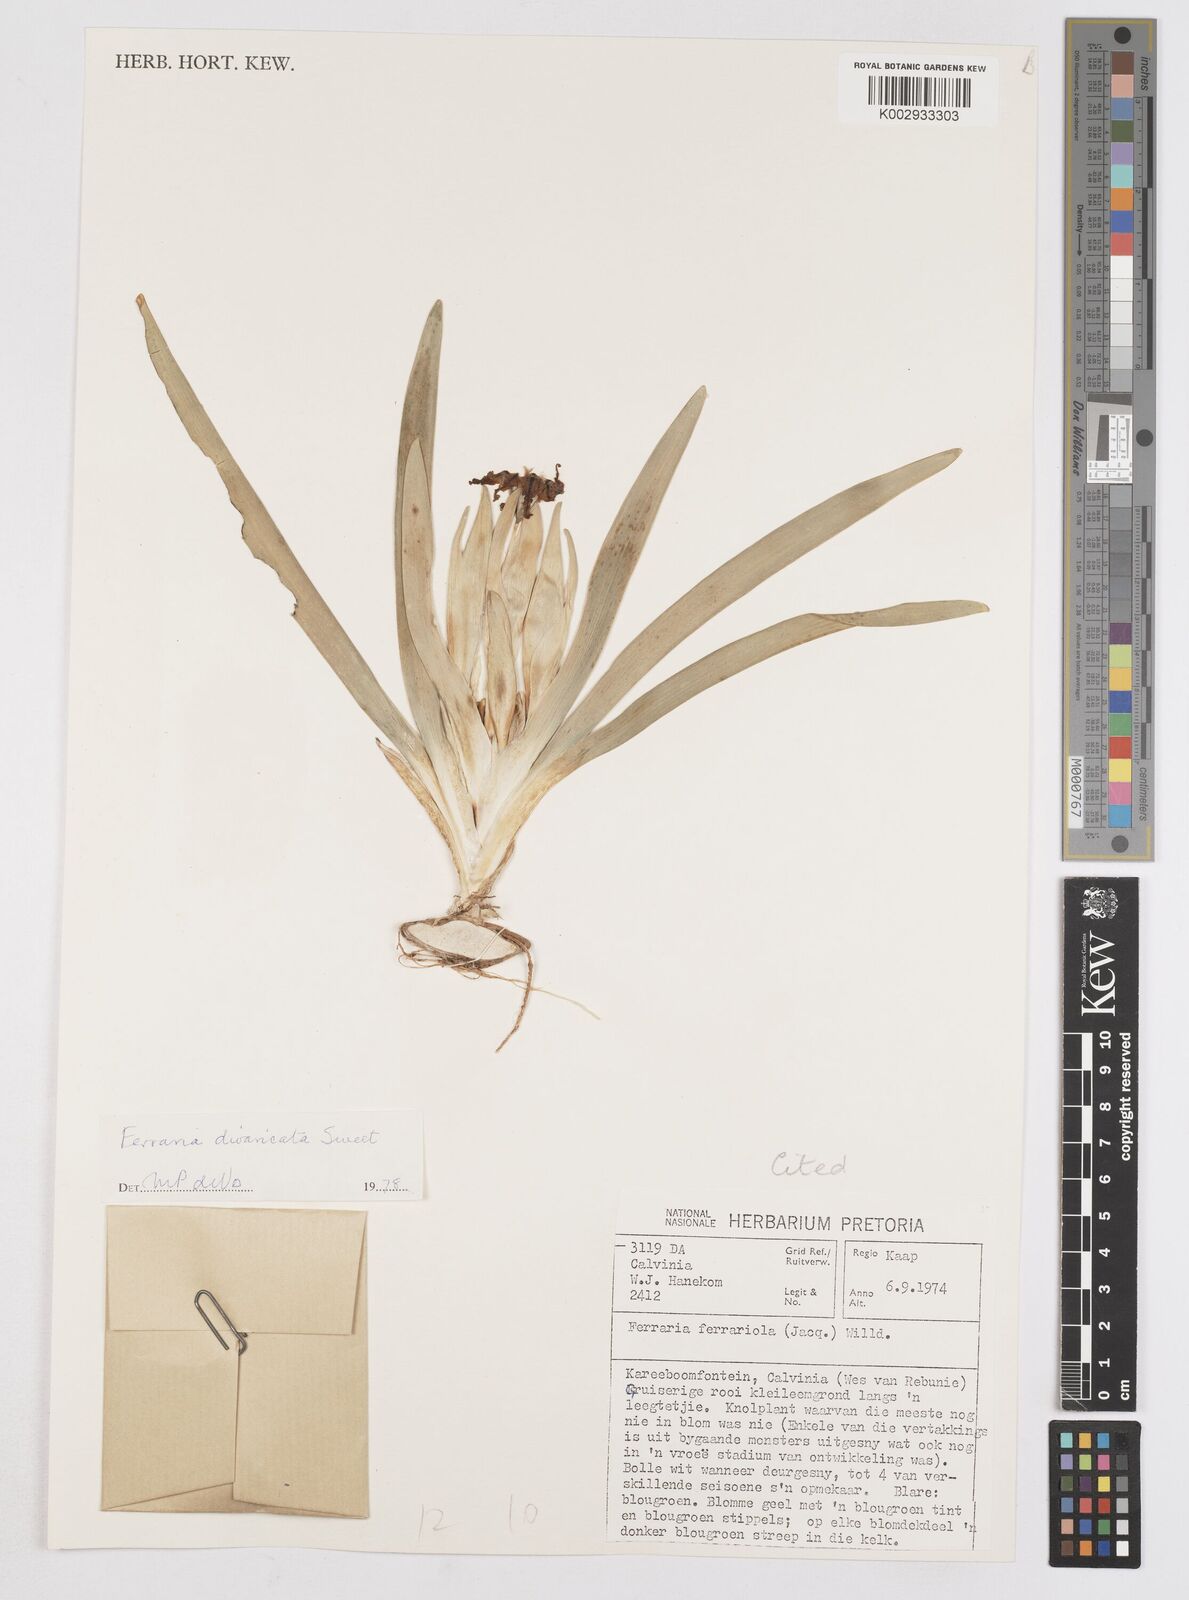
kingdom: Plantae
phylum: Tracheophyta
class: Liliopsida
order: Asparagales
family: Iridaceae
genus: Ferraria
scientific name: Ferraria divaricata
